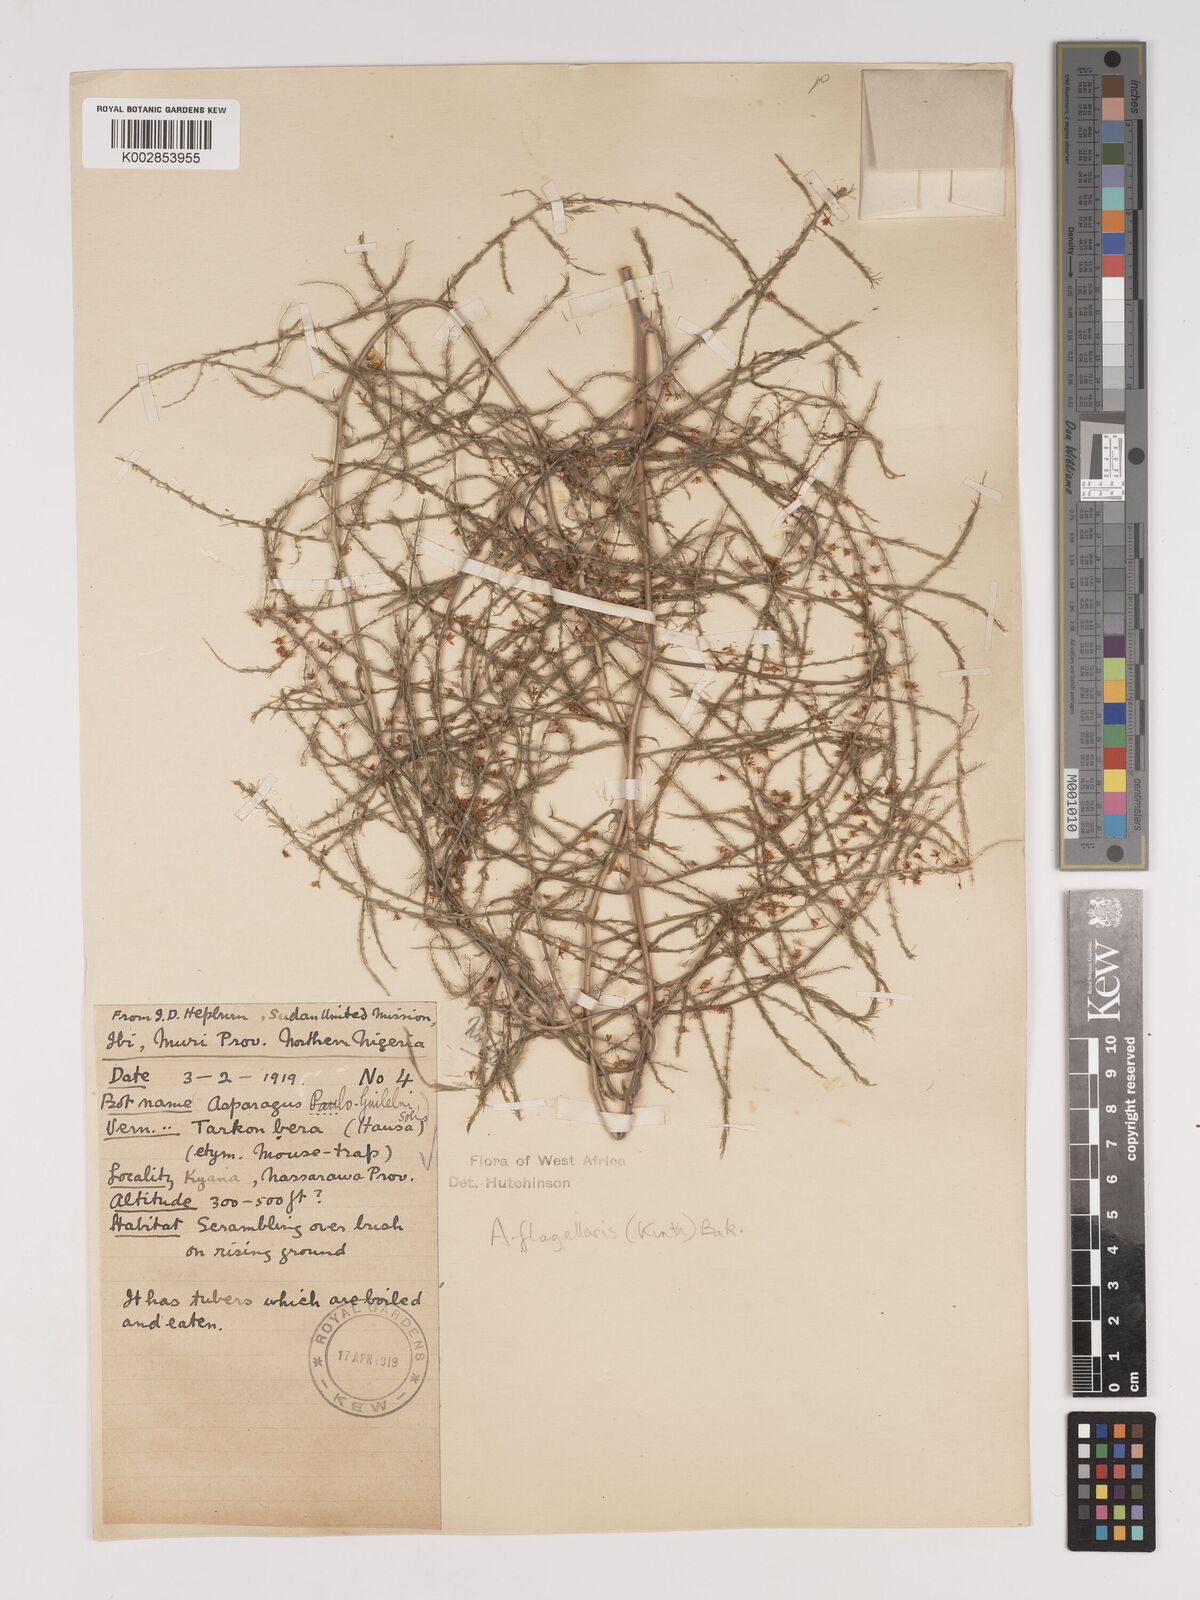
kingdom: Plantae
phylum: Tracheophyta
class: Liliopsida
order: Asparagales
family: Asparagaceae
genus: Asparagus
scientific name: Asparagus flagellaris
